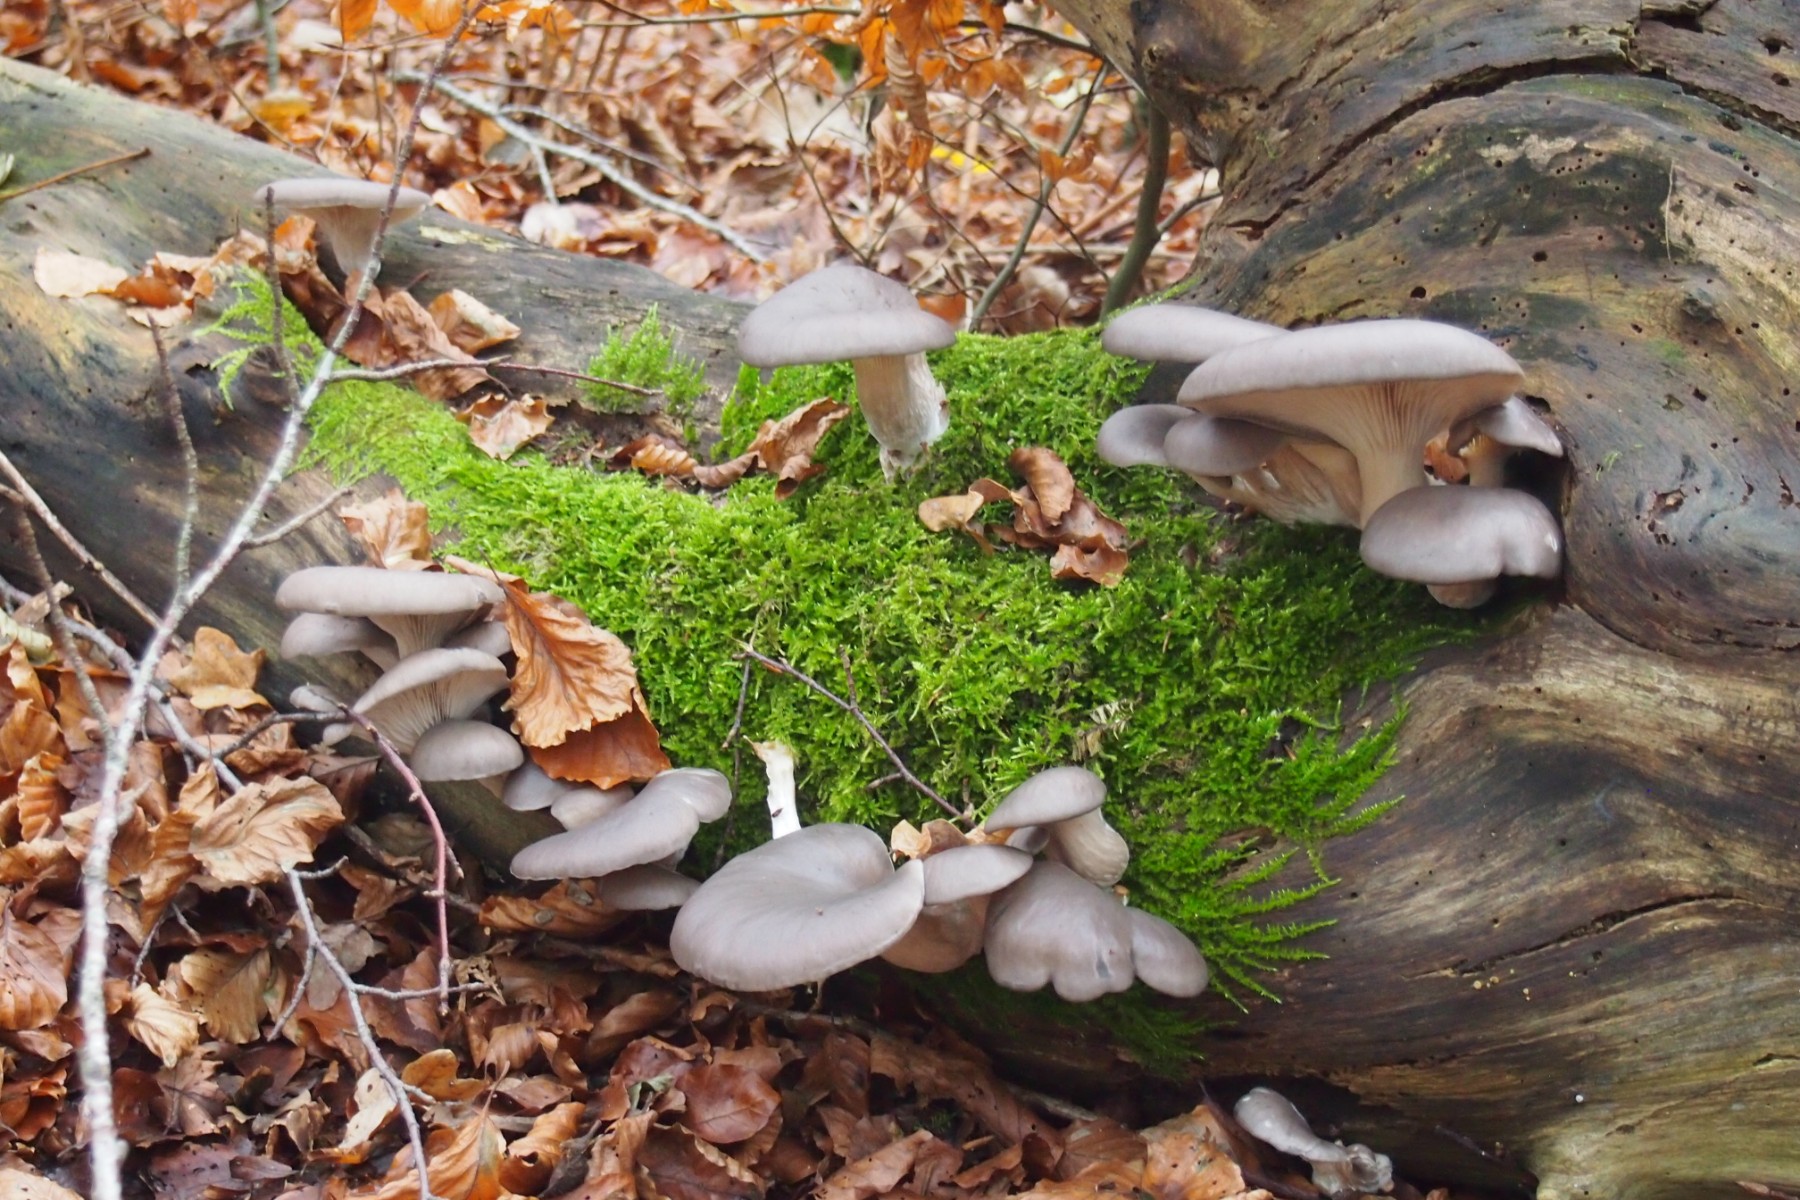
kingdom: Fungi
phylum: Basidiomycota
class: Agaricomycetes
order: Agaricales
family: Pleurotaceae
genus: Pleurotus
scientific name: Pleurotus ostreatus
